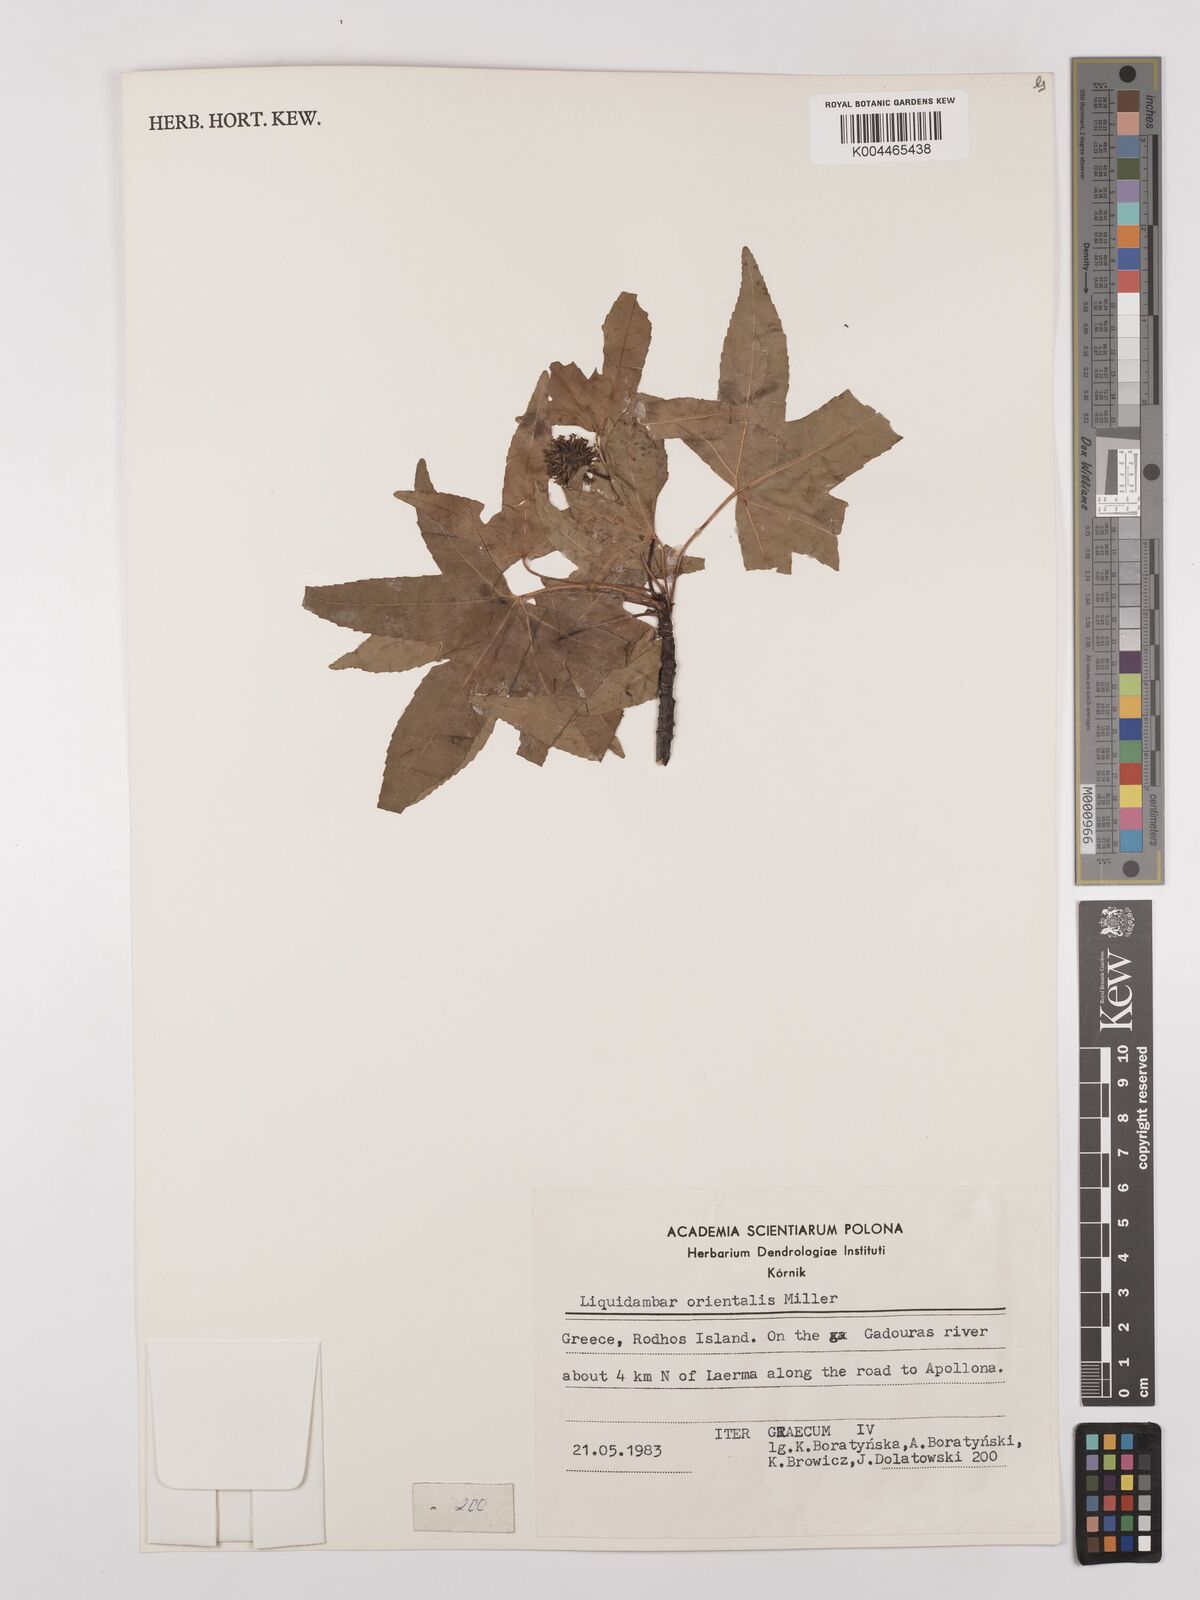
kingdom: Plantae
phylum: Tracheophyta
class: Magnoliopsida
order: Saxifragales
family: Altingiaceae
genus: Liquidambar
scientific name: Liquidambar orientalis
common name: Oriental sweetgum
